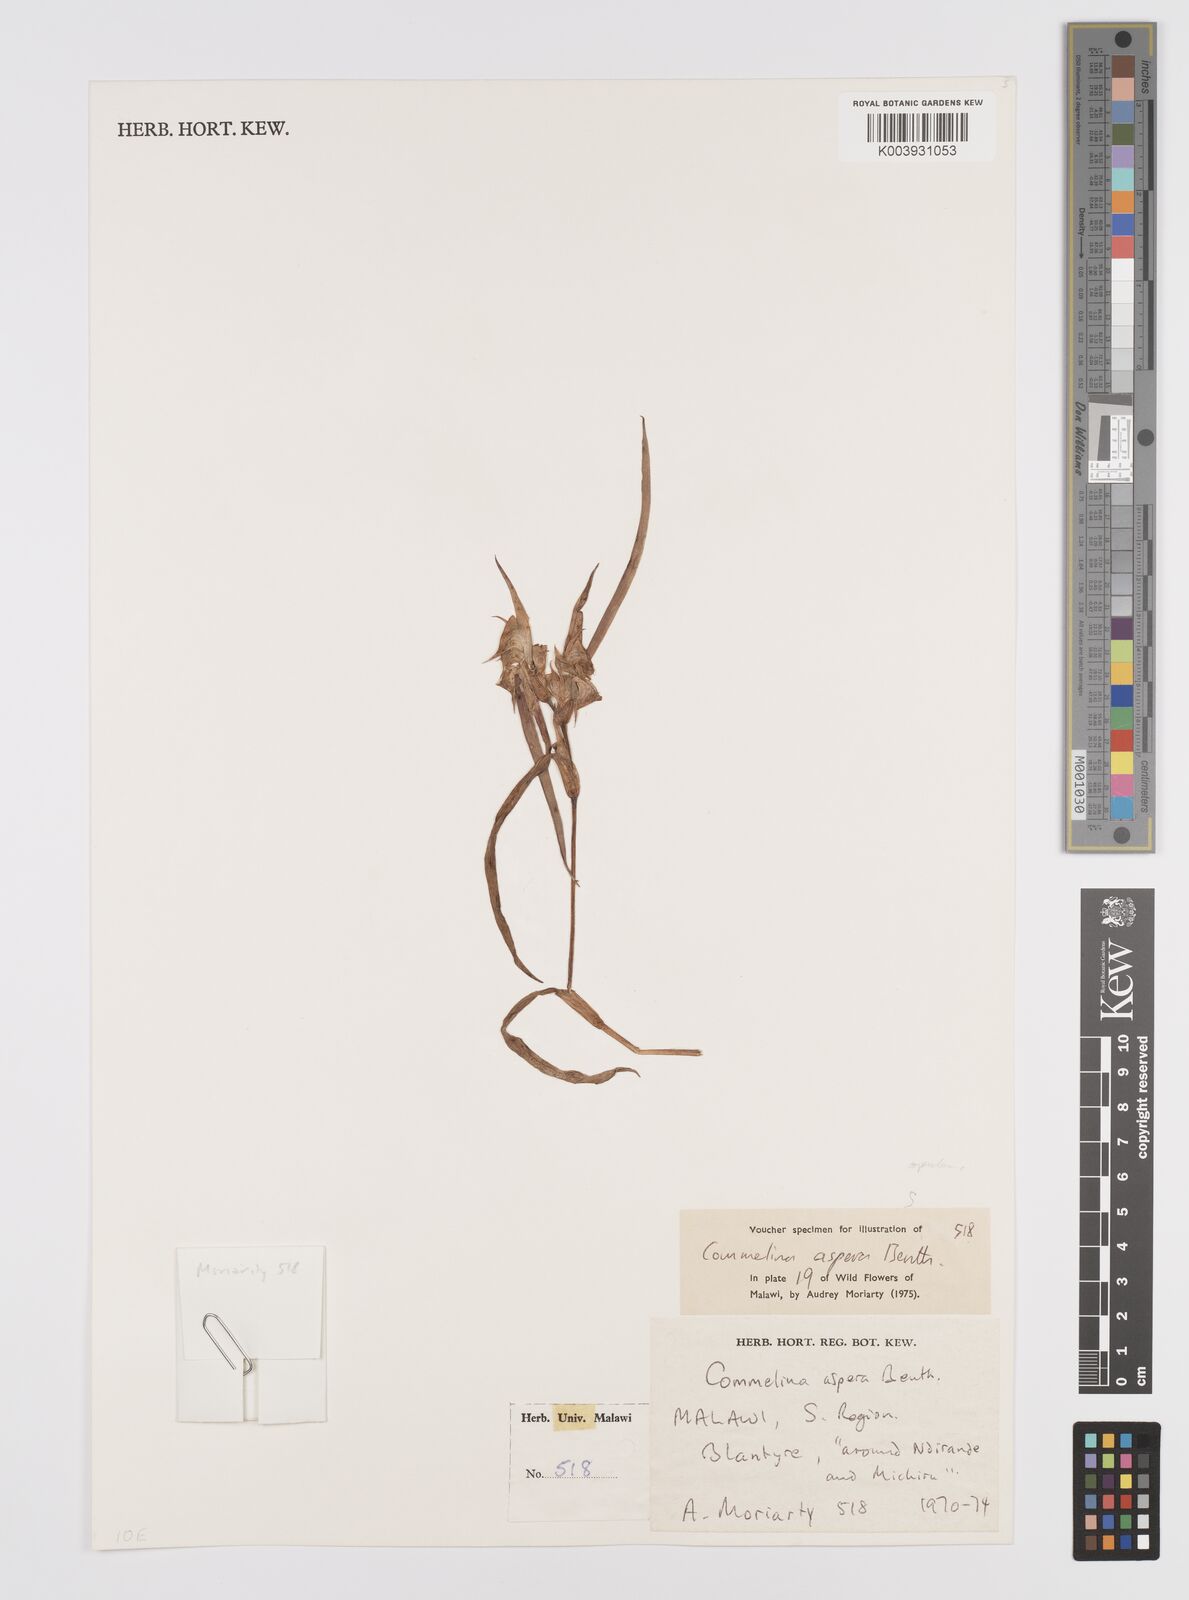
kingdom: Plantae
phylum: Tracheophyta
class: Liliopsida
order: Commelinales
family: Commelinaceae
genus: Commelina
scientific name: Commelina aspera
